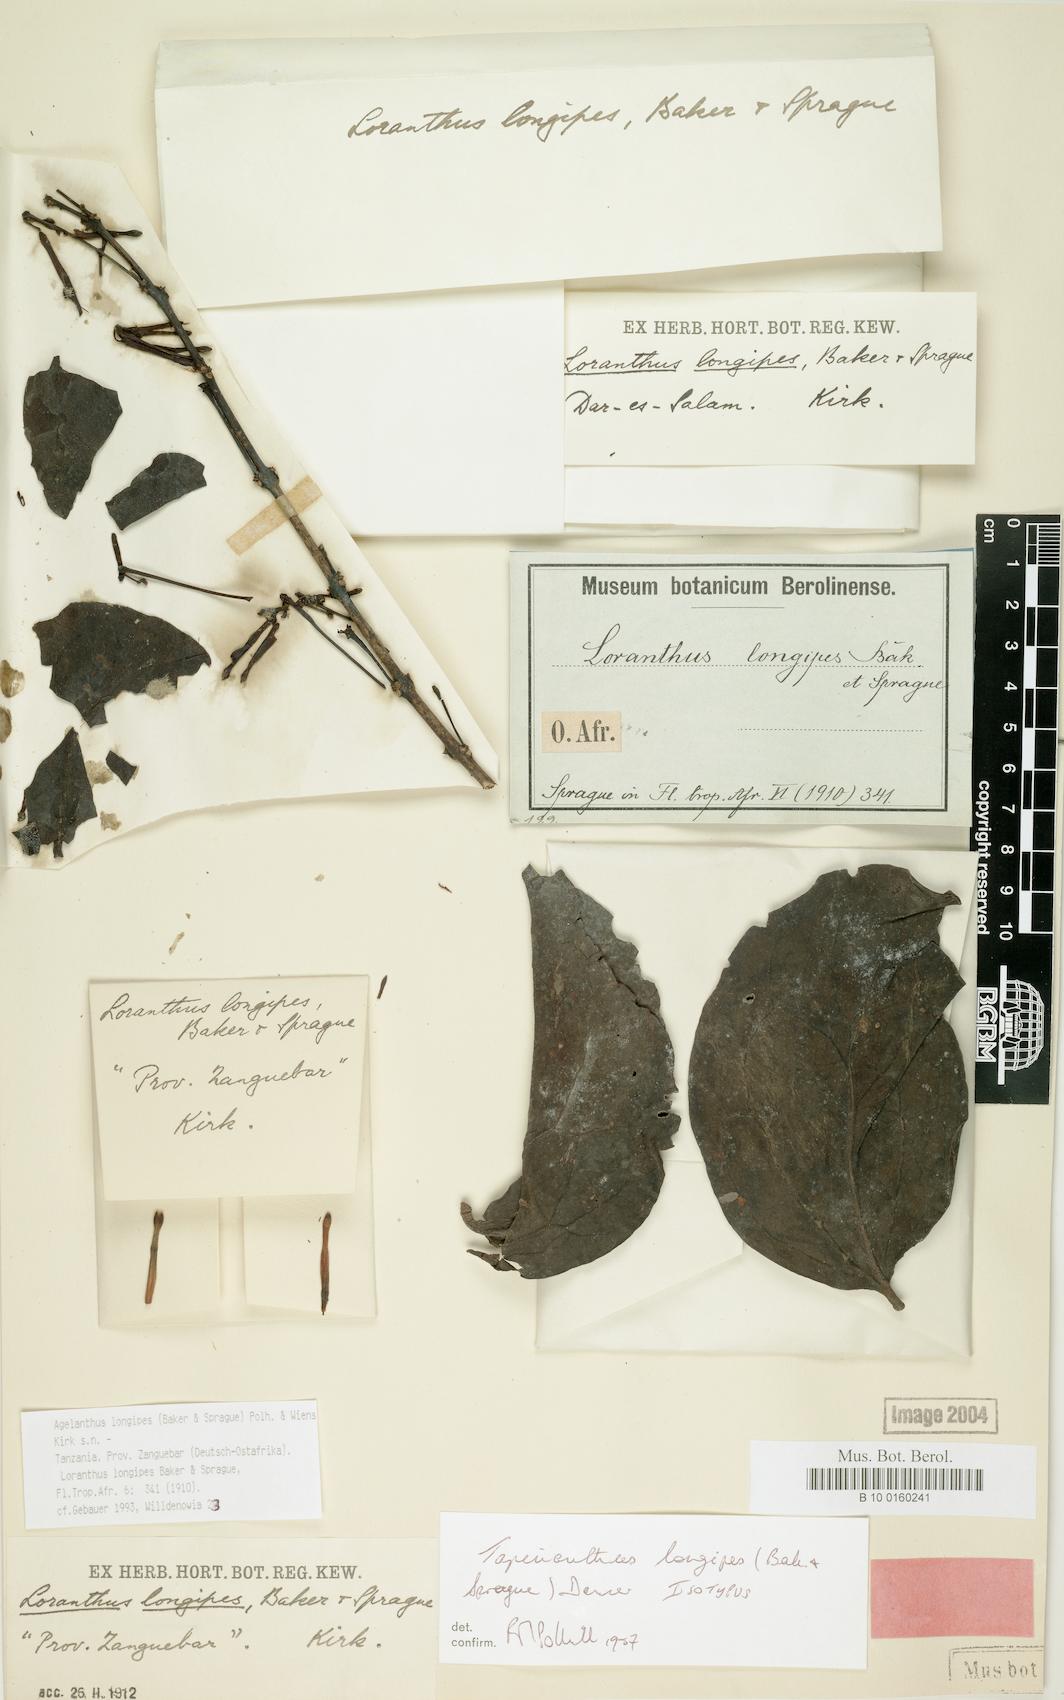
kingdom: Plantae
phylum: Tracheophyta
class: Magnoliopsida
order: Santalales
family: Loranthaceae
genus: Agelanthus
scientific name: Agelanthus longipes
